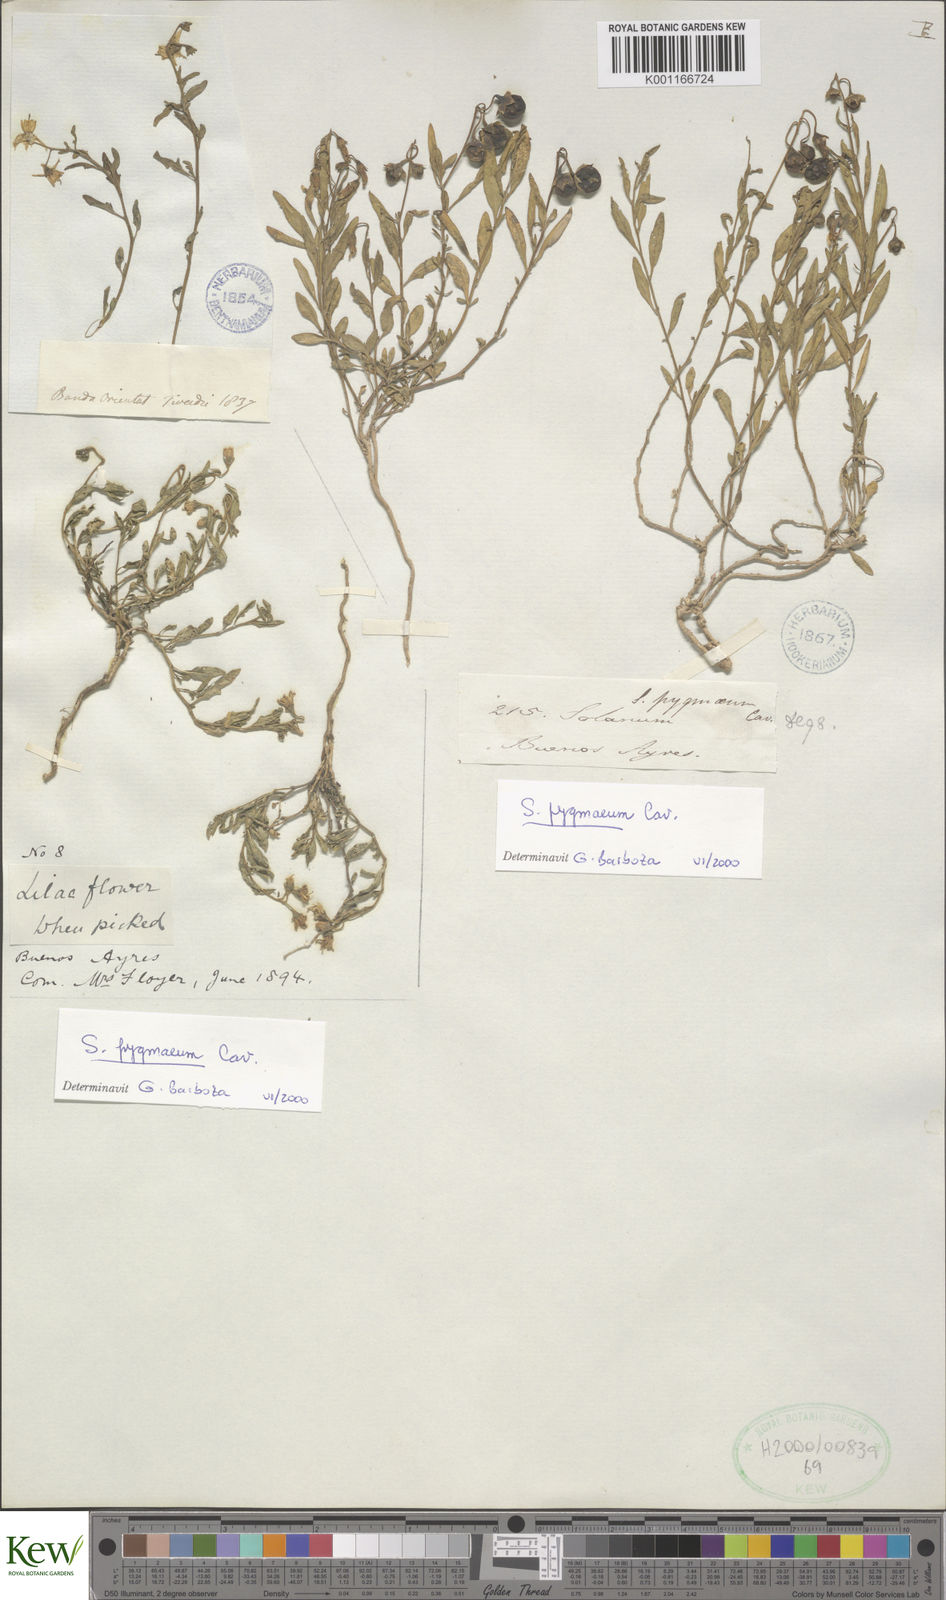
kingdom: Plantae
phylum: Tracheophyta
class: Magnoliopsida
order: Solanales
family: Solanaceae
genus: Solanum
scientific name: Solanum pygmaeum
